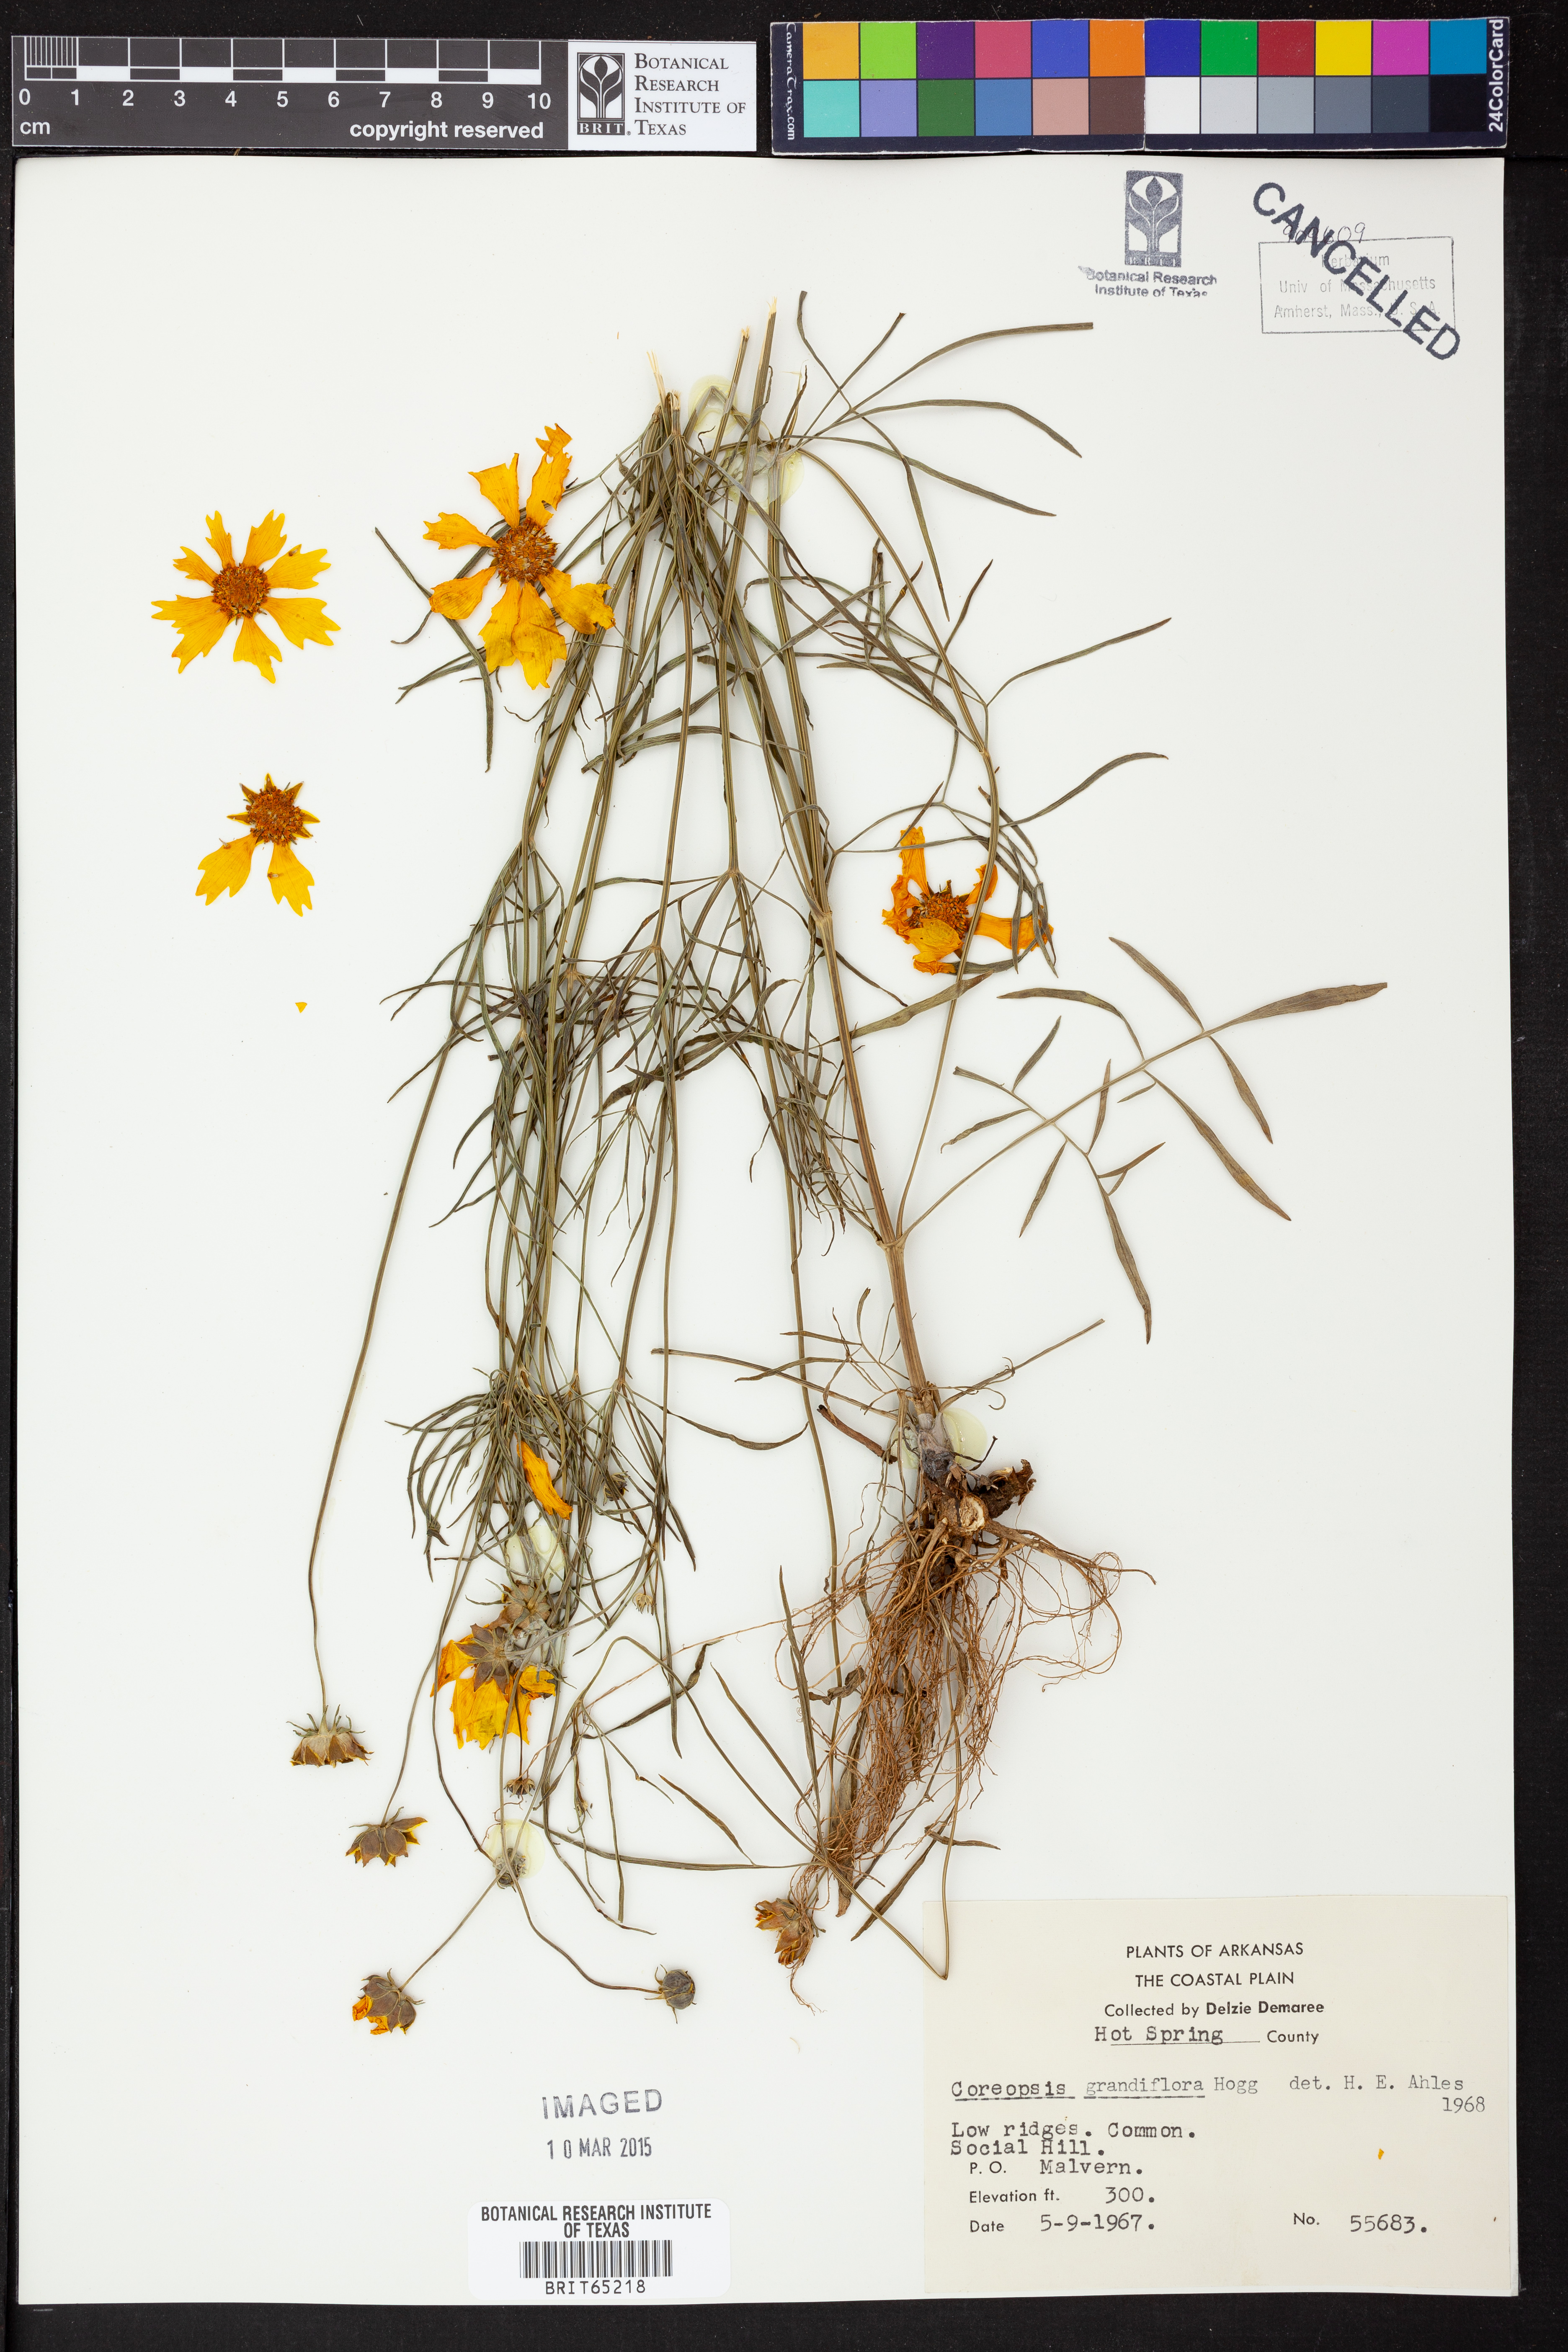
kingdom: Plantae
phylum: Tracheophyta
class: Magnoliopsida
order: Asterales
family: Asteraceae
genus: Coreopsis
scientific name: Coreopsis grandiflora
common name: Large-flowered tickseed
